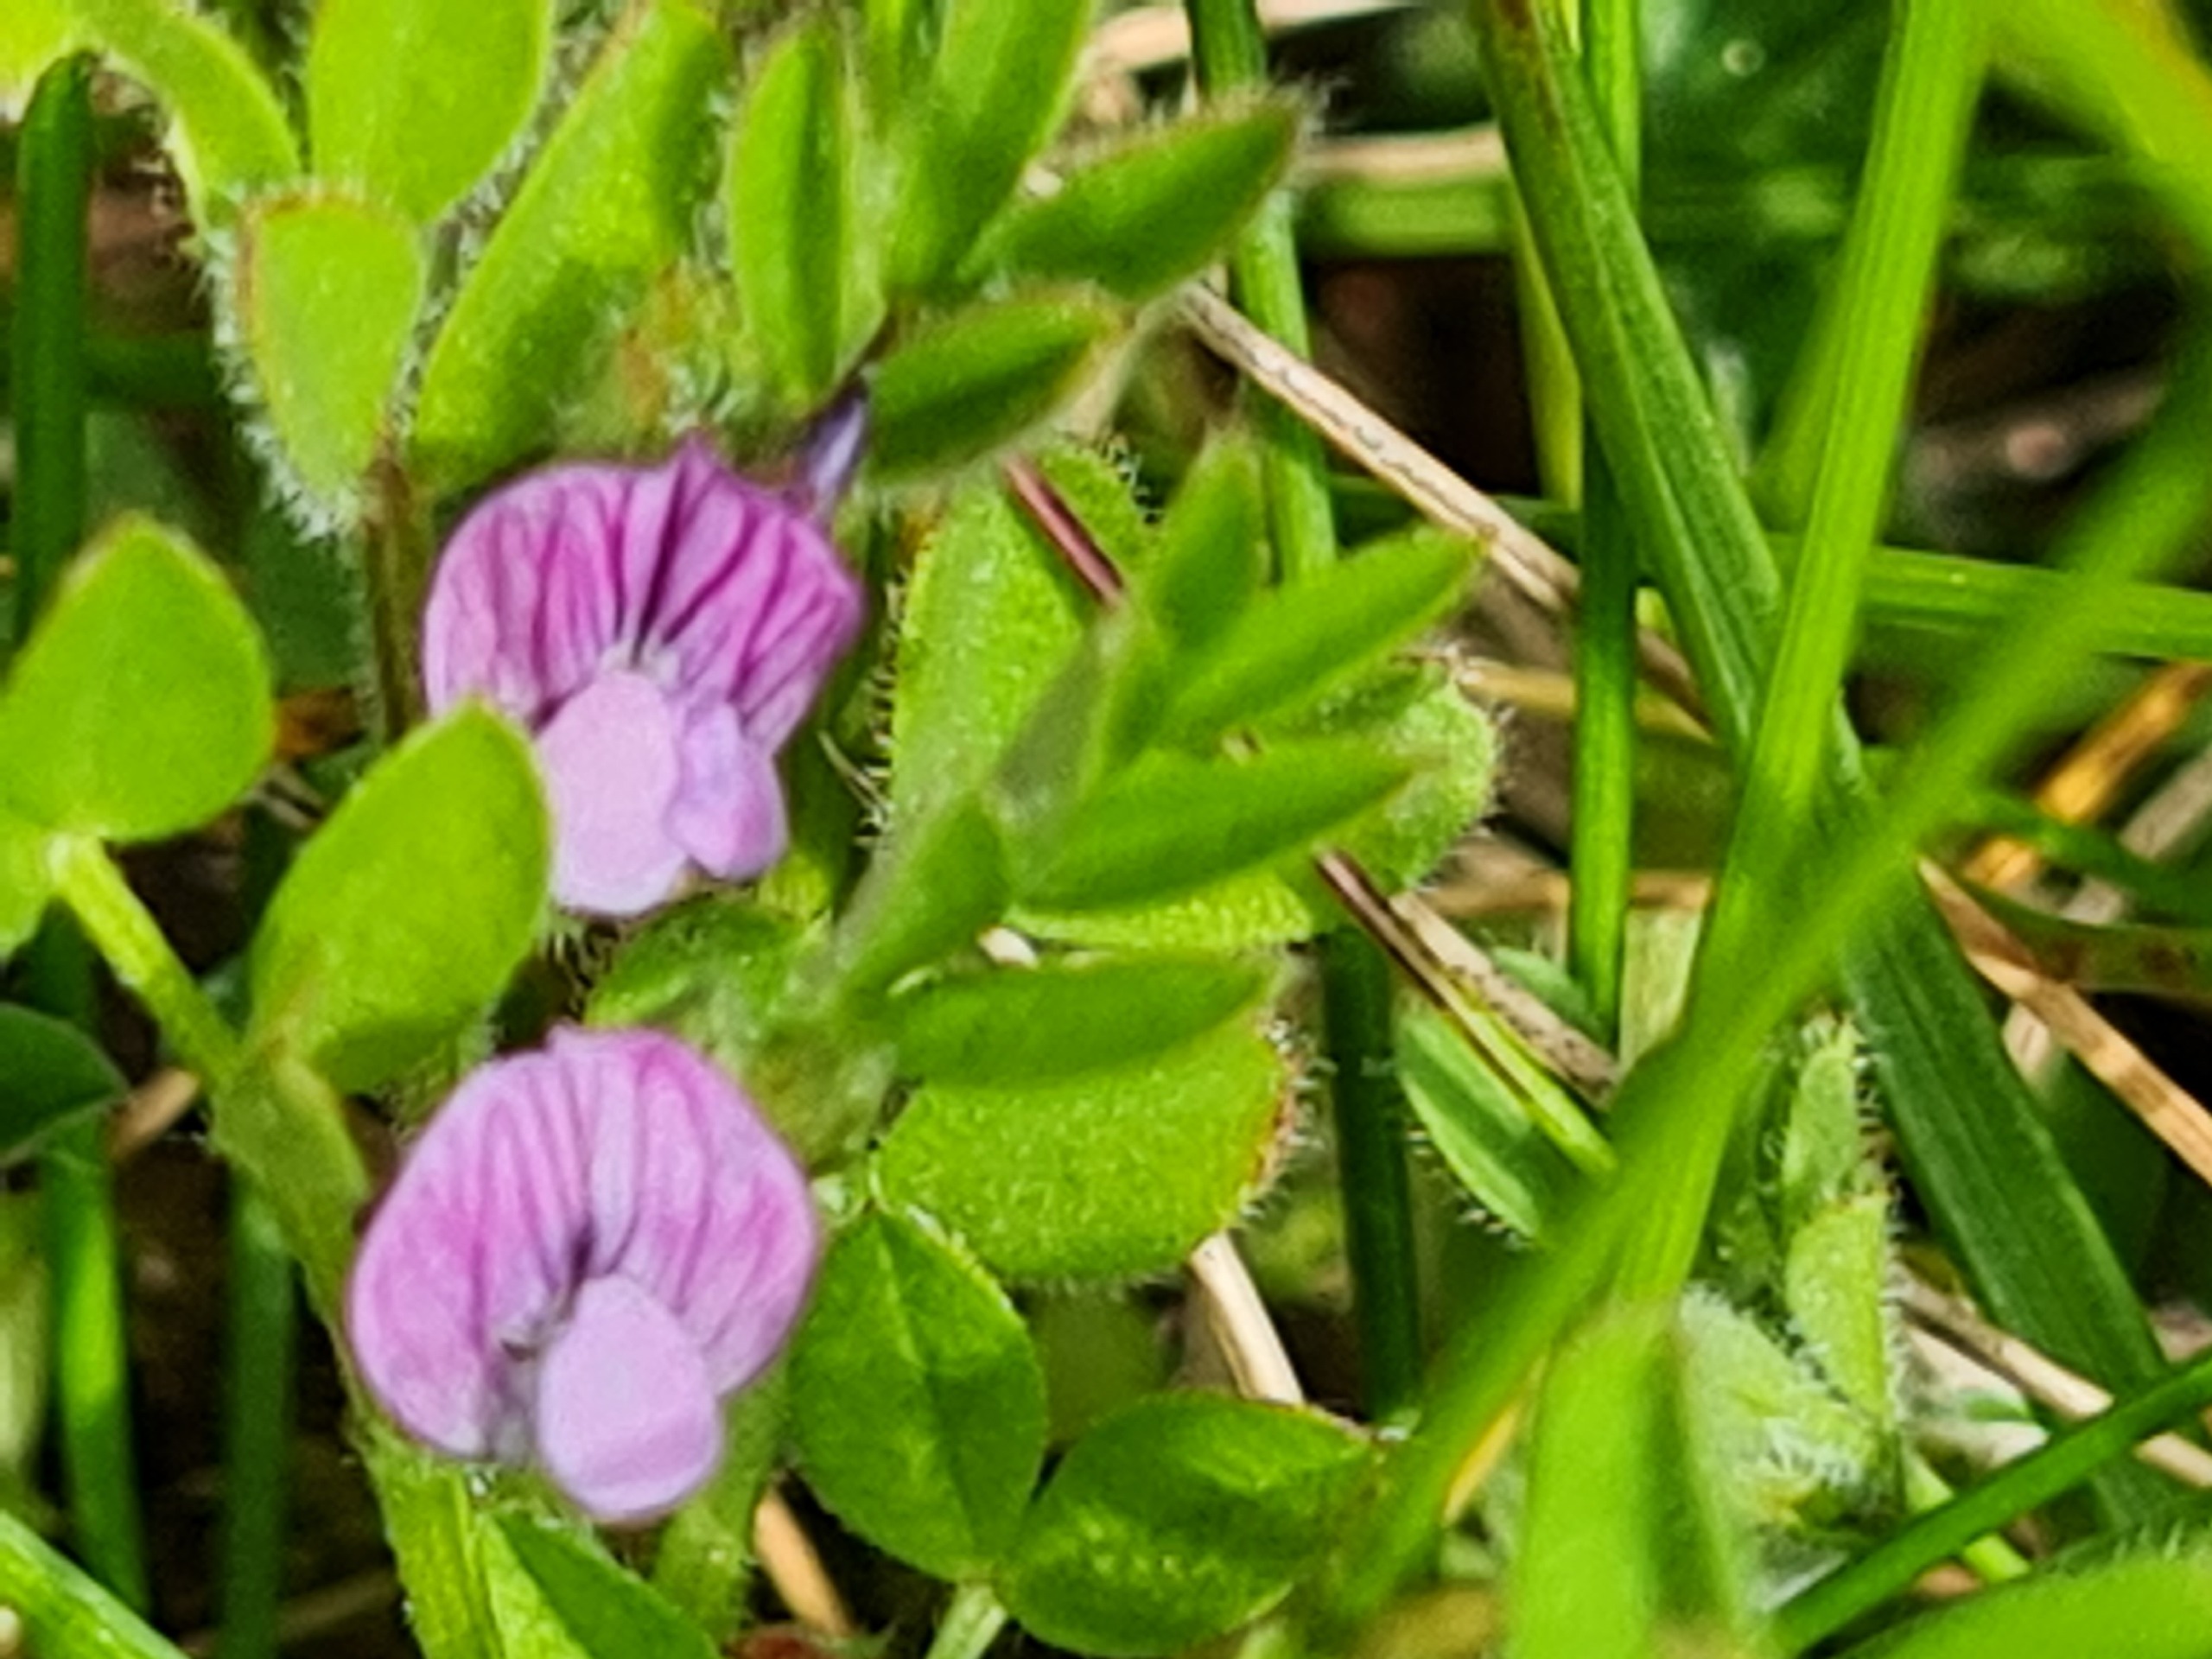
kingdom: Plantae
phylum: Tracheophyta
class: Magnoliopsida
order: Fabales
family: Fabaceae
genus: Vicia
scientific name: Vicia lathyroides
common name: Vår-vikke
